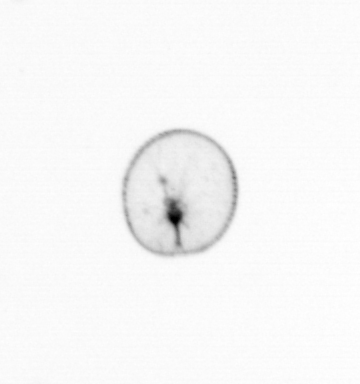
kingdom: Chromista
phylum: Myzozoa
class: Dinophyceae
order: Noctilucales
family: Noctilucaceae
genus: Noctiluca
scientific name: Noctiluca scintillans
